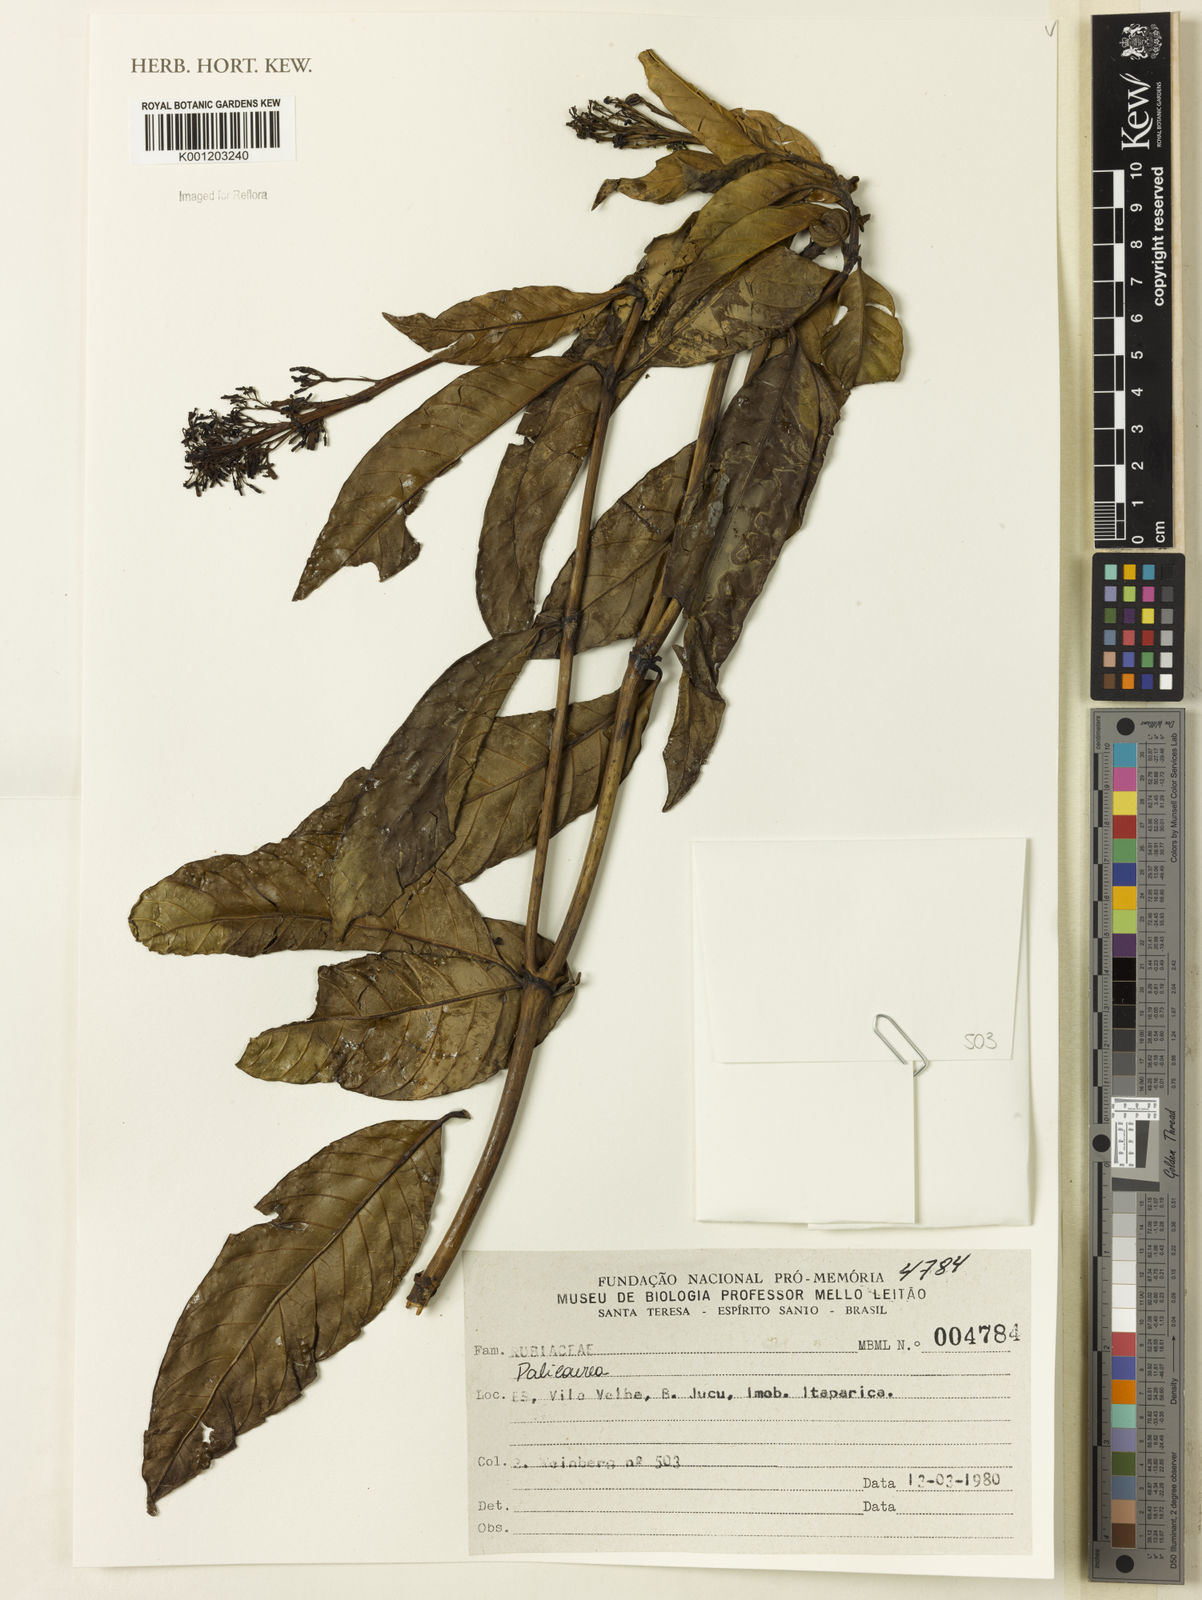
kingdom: Plantae
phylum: Tracheophyta
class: Magnoliopsida
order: Gentianales
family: Rubiaceae
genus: Palicourea
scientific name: Palicourea
